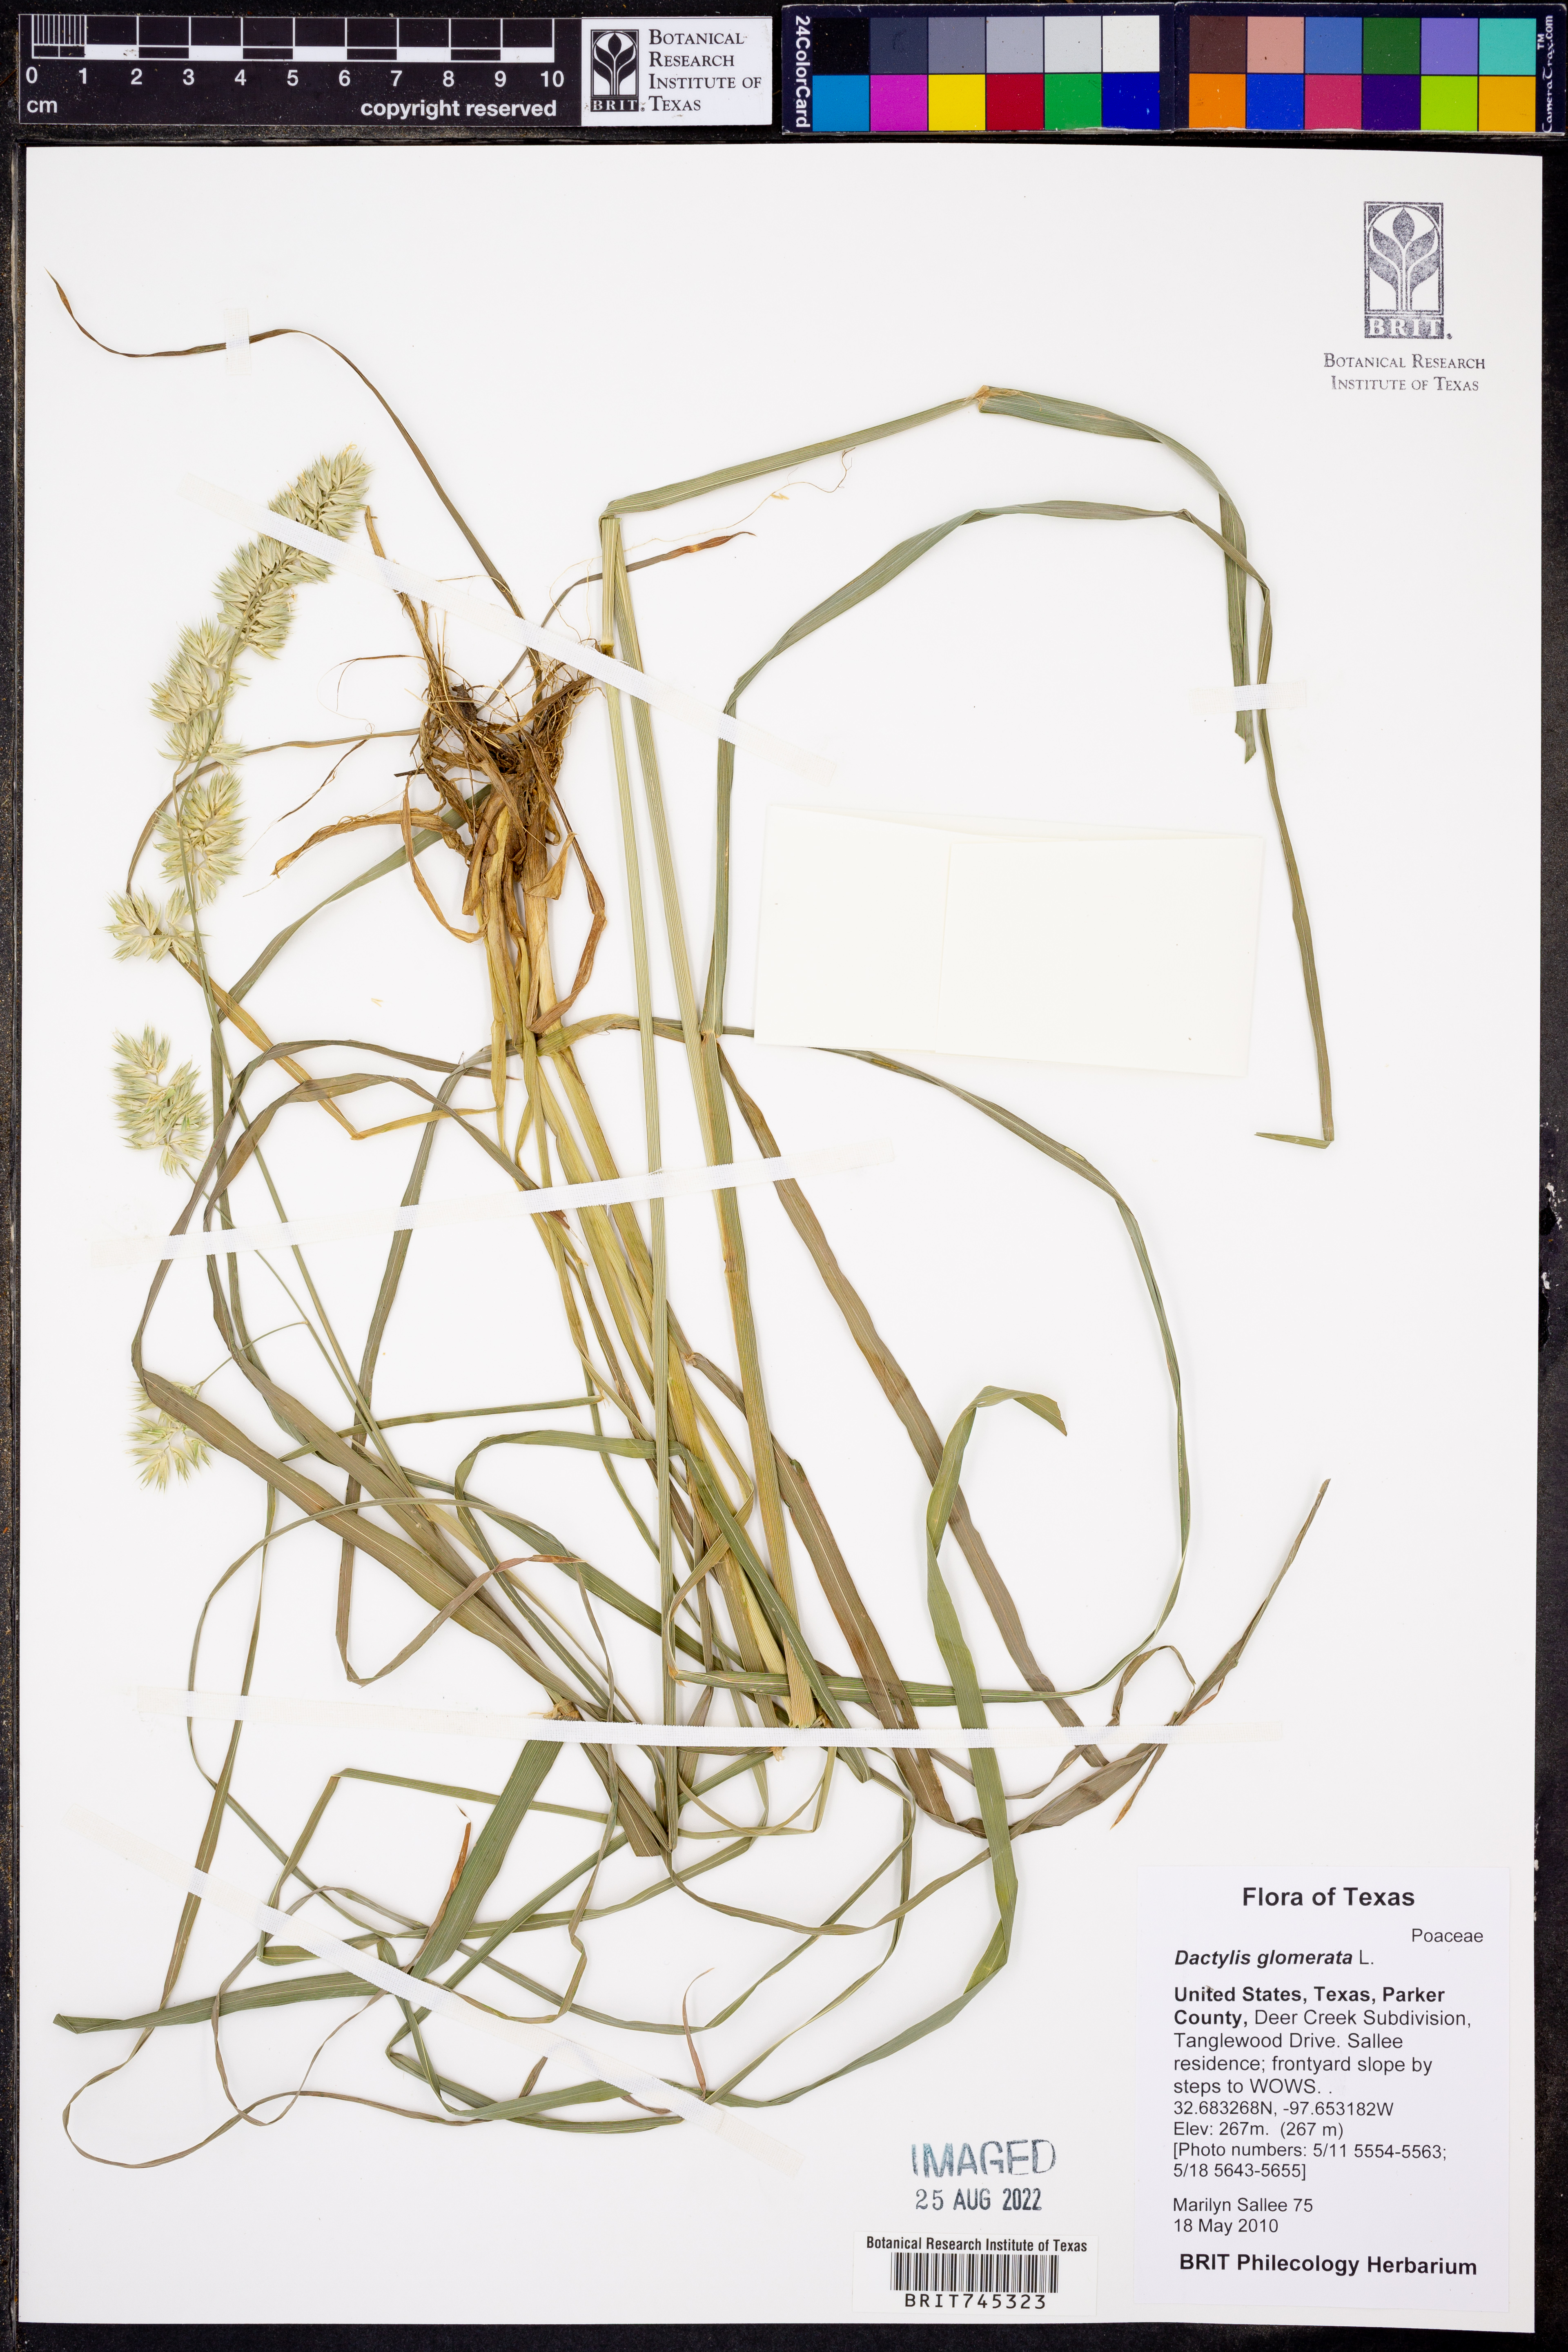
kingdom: Plantae
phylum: Tracheophyta
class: Liliopsida
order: Poales
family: Poaceae
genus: Dactylis
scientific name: Dactylis glomerata
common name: Orchardgrass
